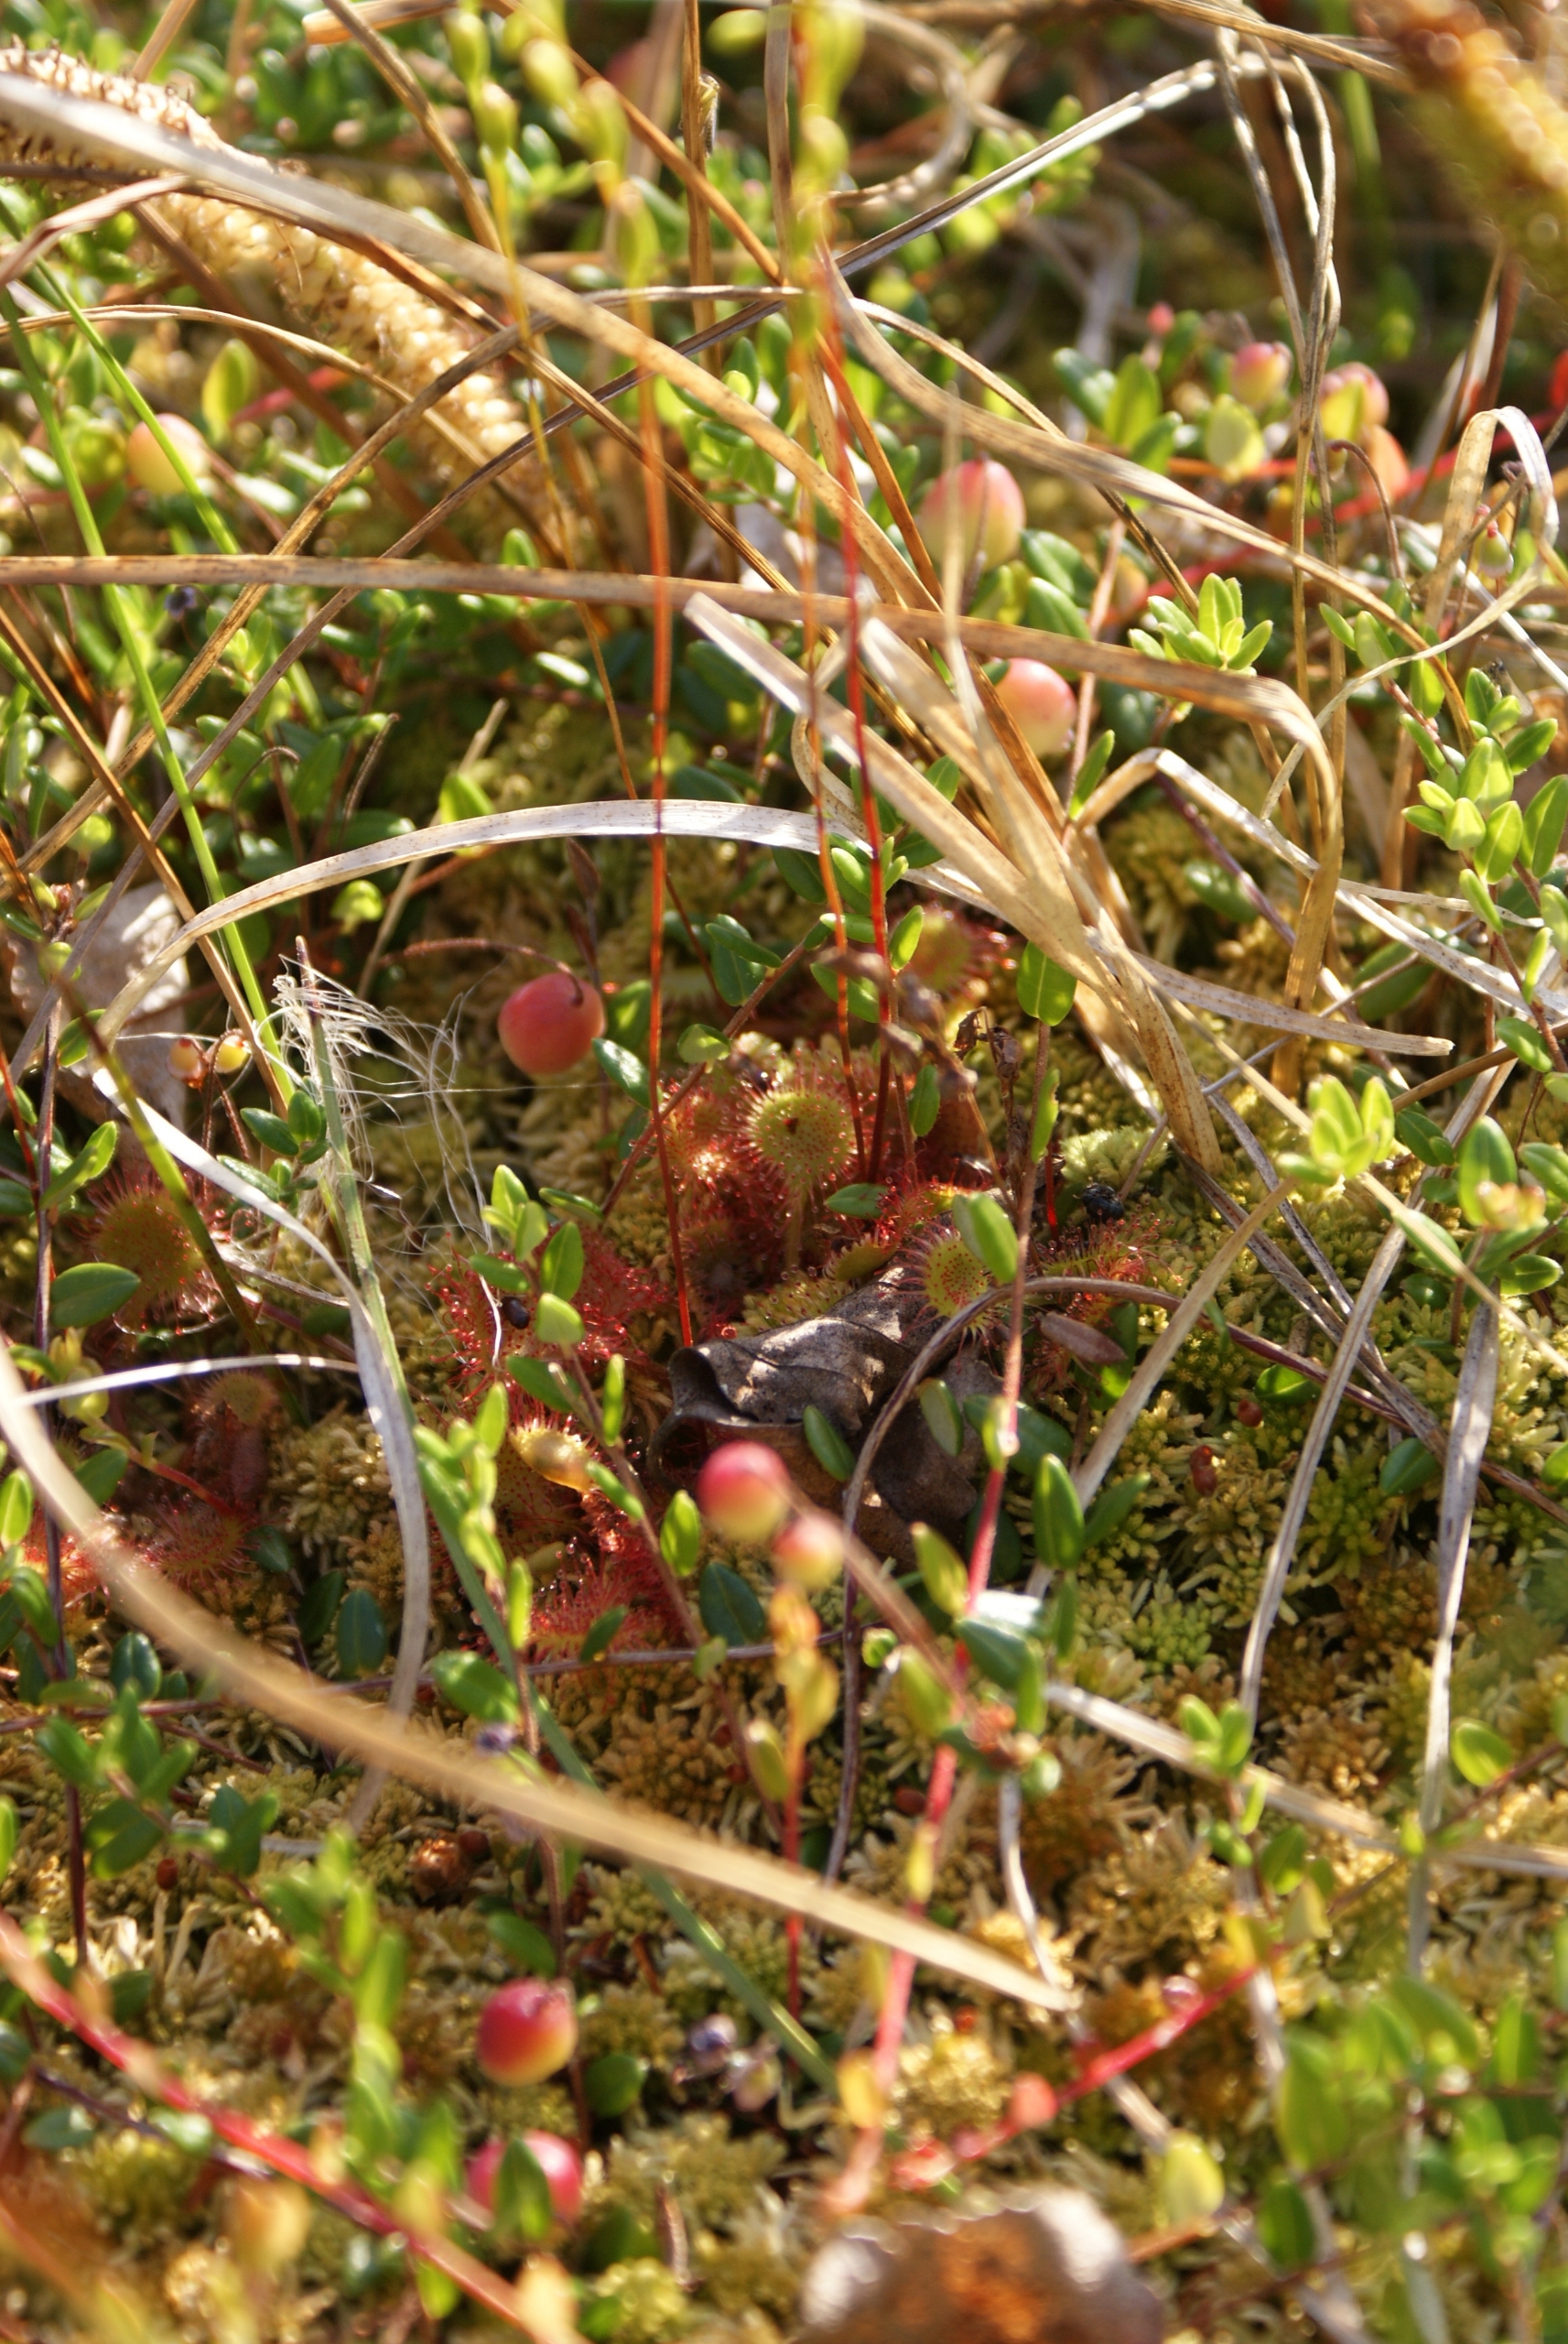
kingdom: Plantae
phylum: Tracheophyta
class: Magnoliopsida
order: Caryophyllales
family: Droseraceae
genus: Drosera
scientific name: Drosera rotundifolia
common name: Rundbladet soldug
